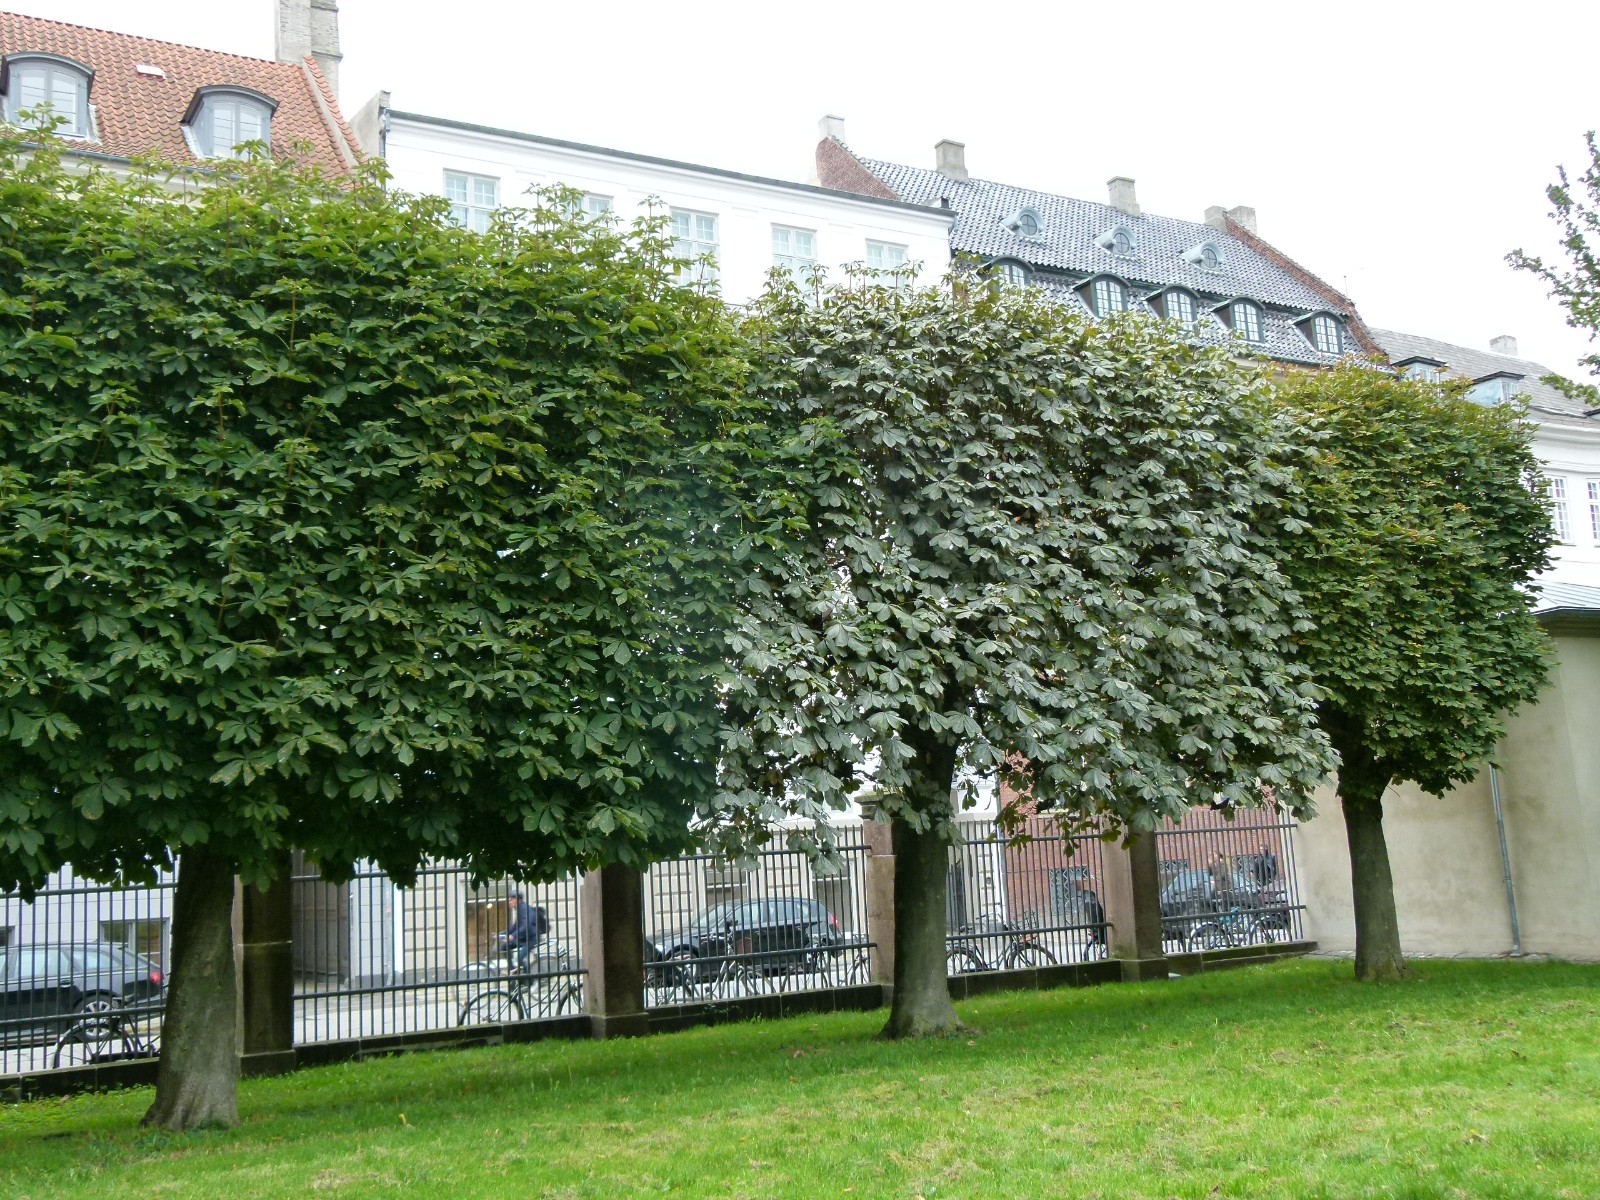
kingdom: Fungi
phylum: Ascomycota
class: Leotiomycetes
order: Helotiales
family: Erysiphaceae
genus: Erysiphe
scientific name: Erysiphe flexuosa
